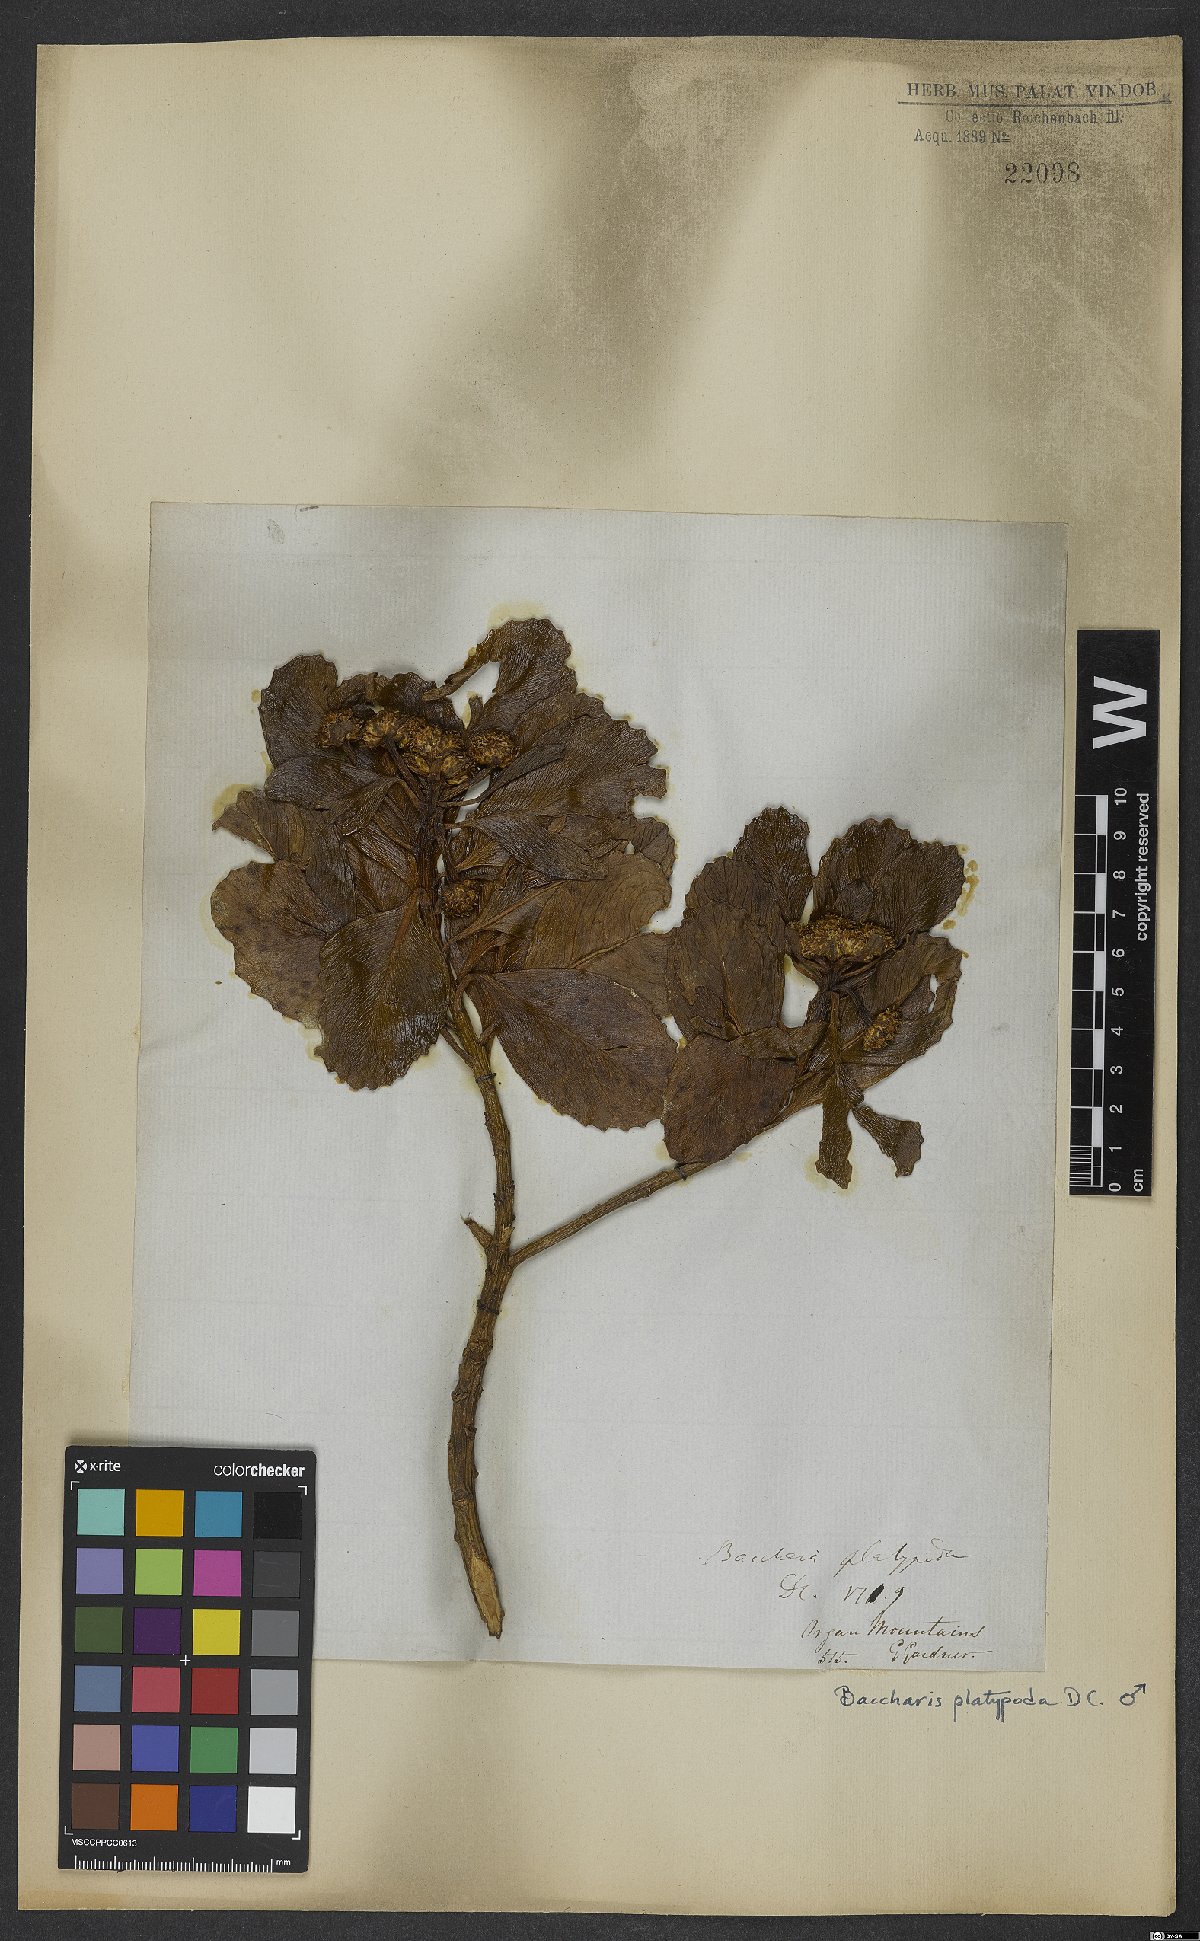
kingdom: Plantae
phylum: Tracheophyta
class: Magnoliopsida
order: Asterales
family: Asteraceae
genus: Baccharis
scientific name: Baccharis platypoda
